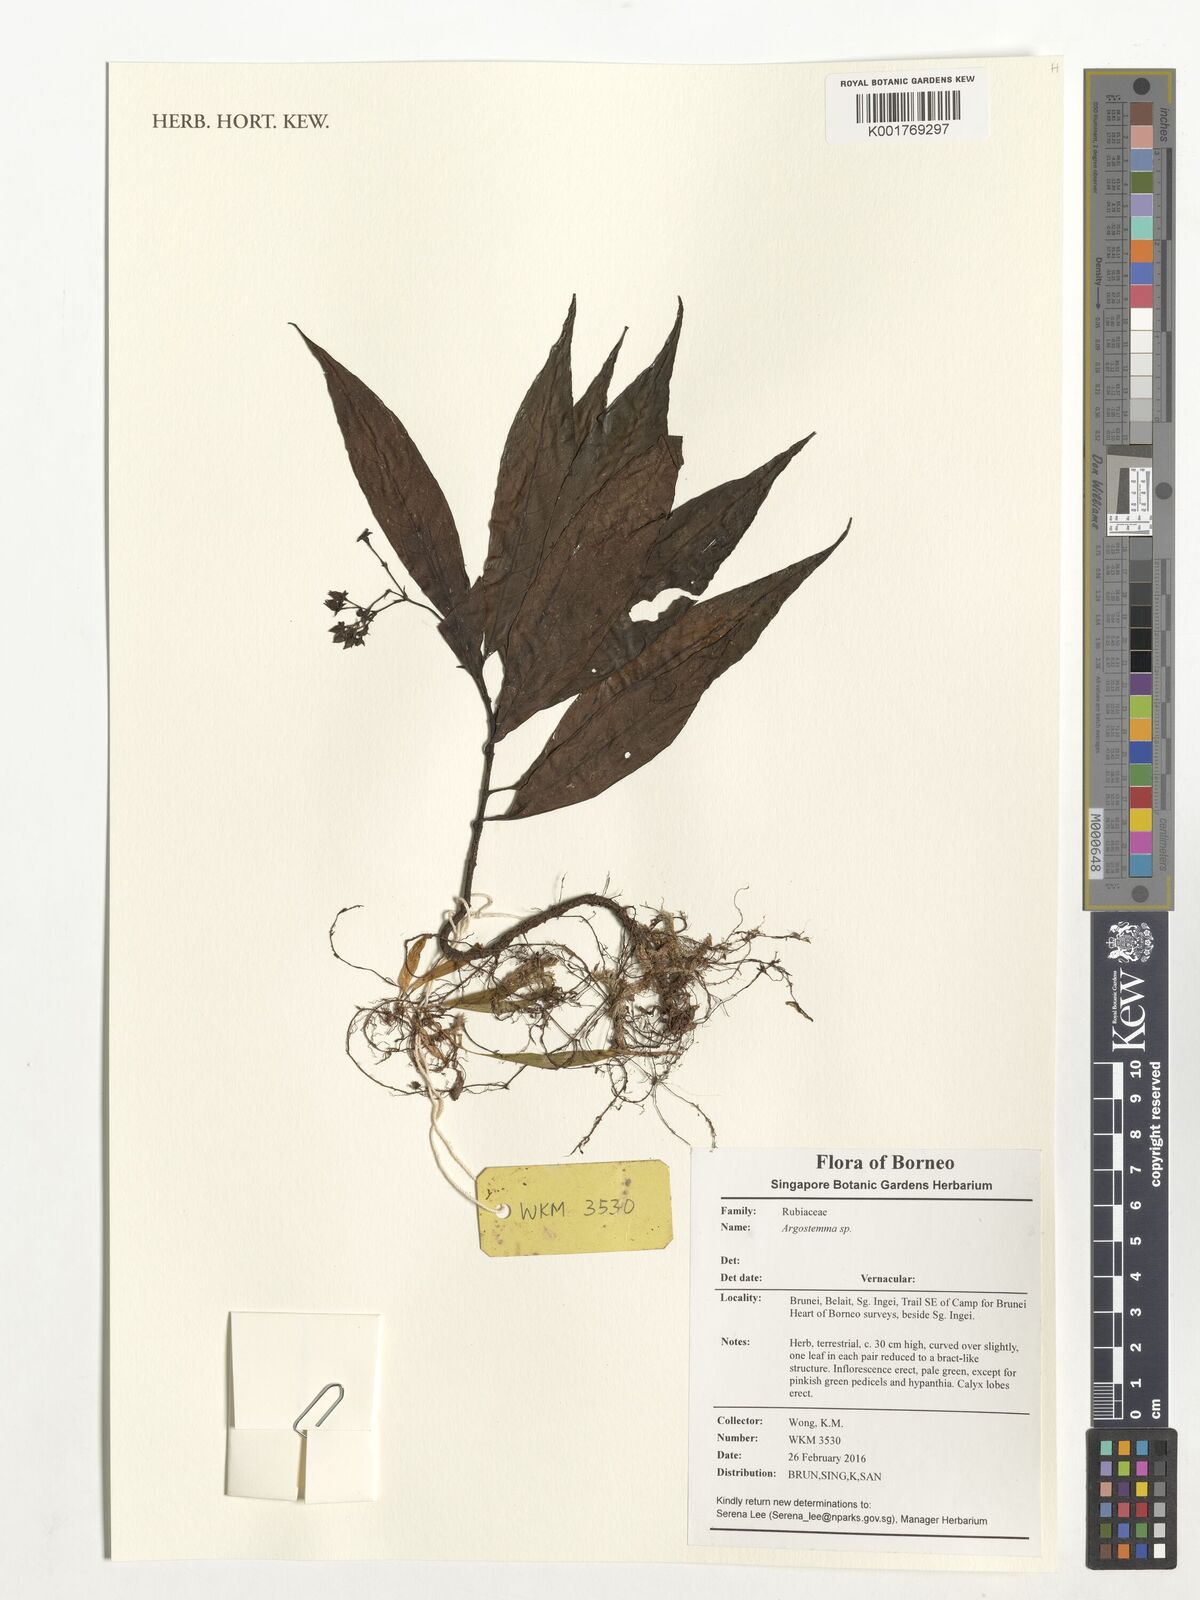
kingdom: Plantae
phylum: Tracheophyta
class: Magnoliopsida
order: Gentianales
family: Rubiaceae
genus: Argostemma
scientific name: Argostemma
